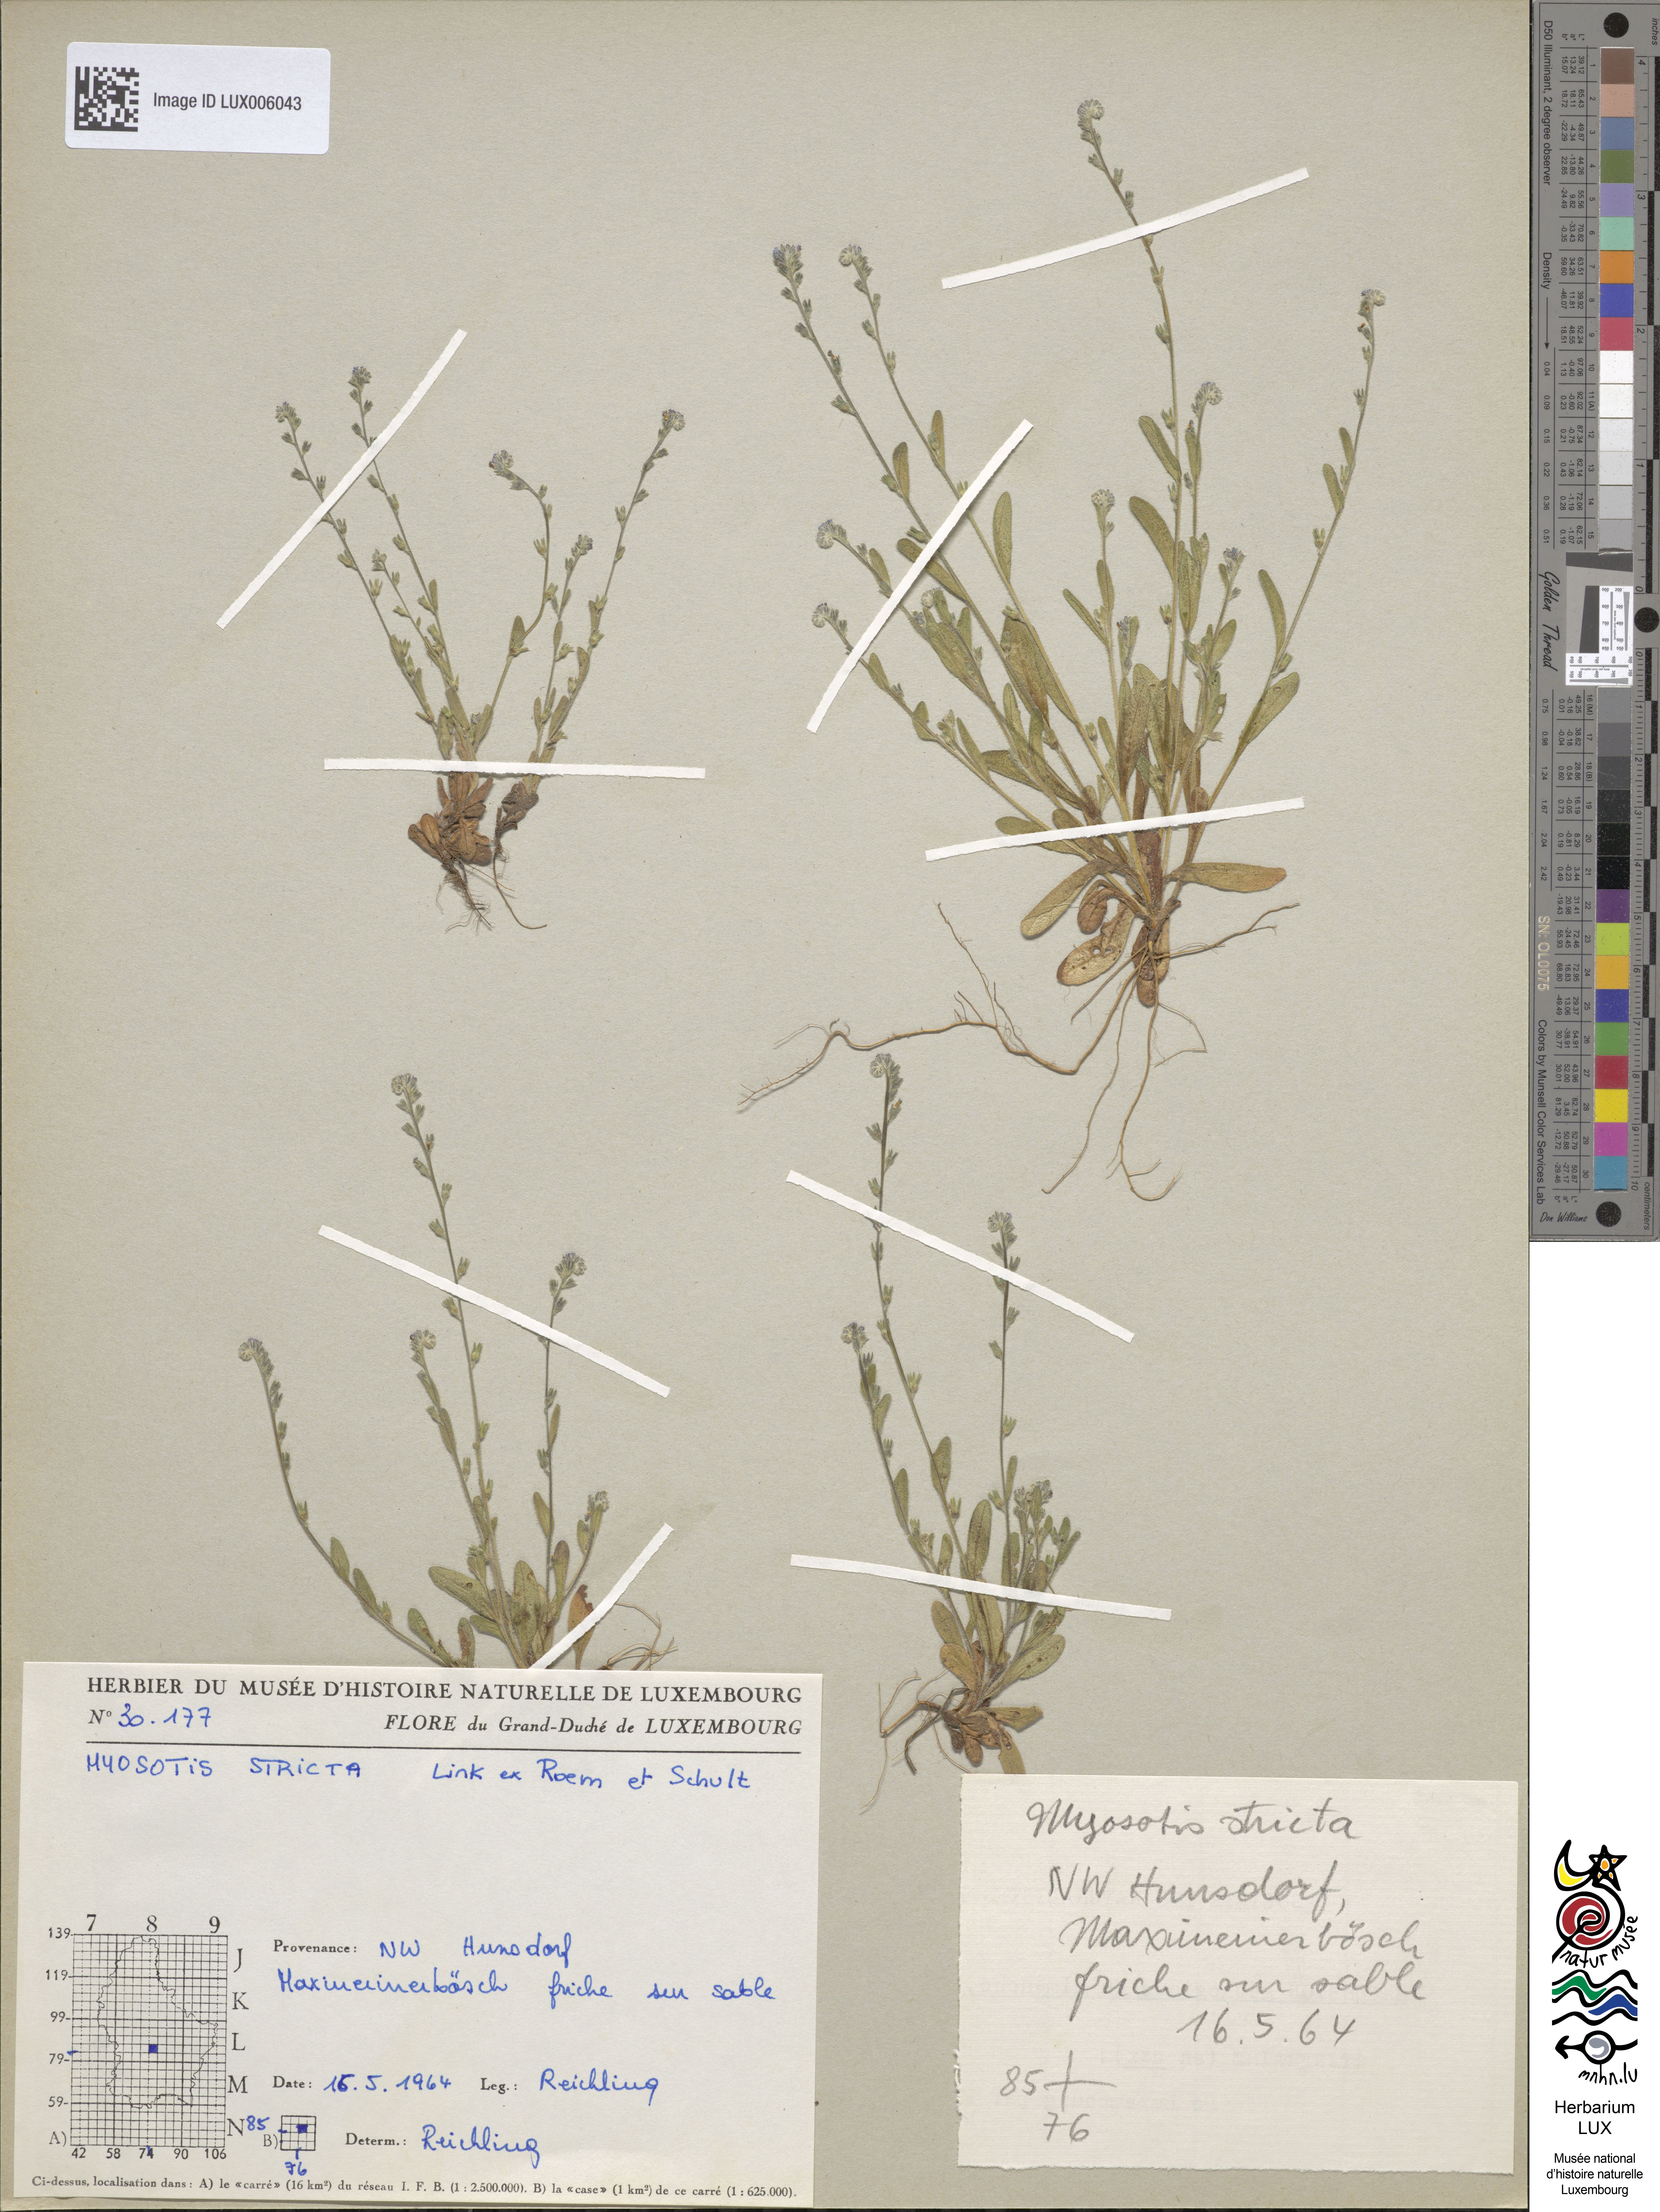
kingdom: Plantae
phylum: Tracheophyta
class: Magnoliopsida
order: Boraginales
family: Boraginaceae
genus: Myosotis
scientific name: Myosotis stricta
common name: Strict forget-me-not
